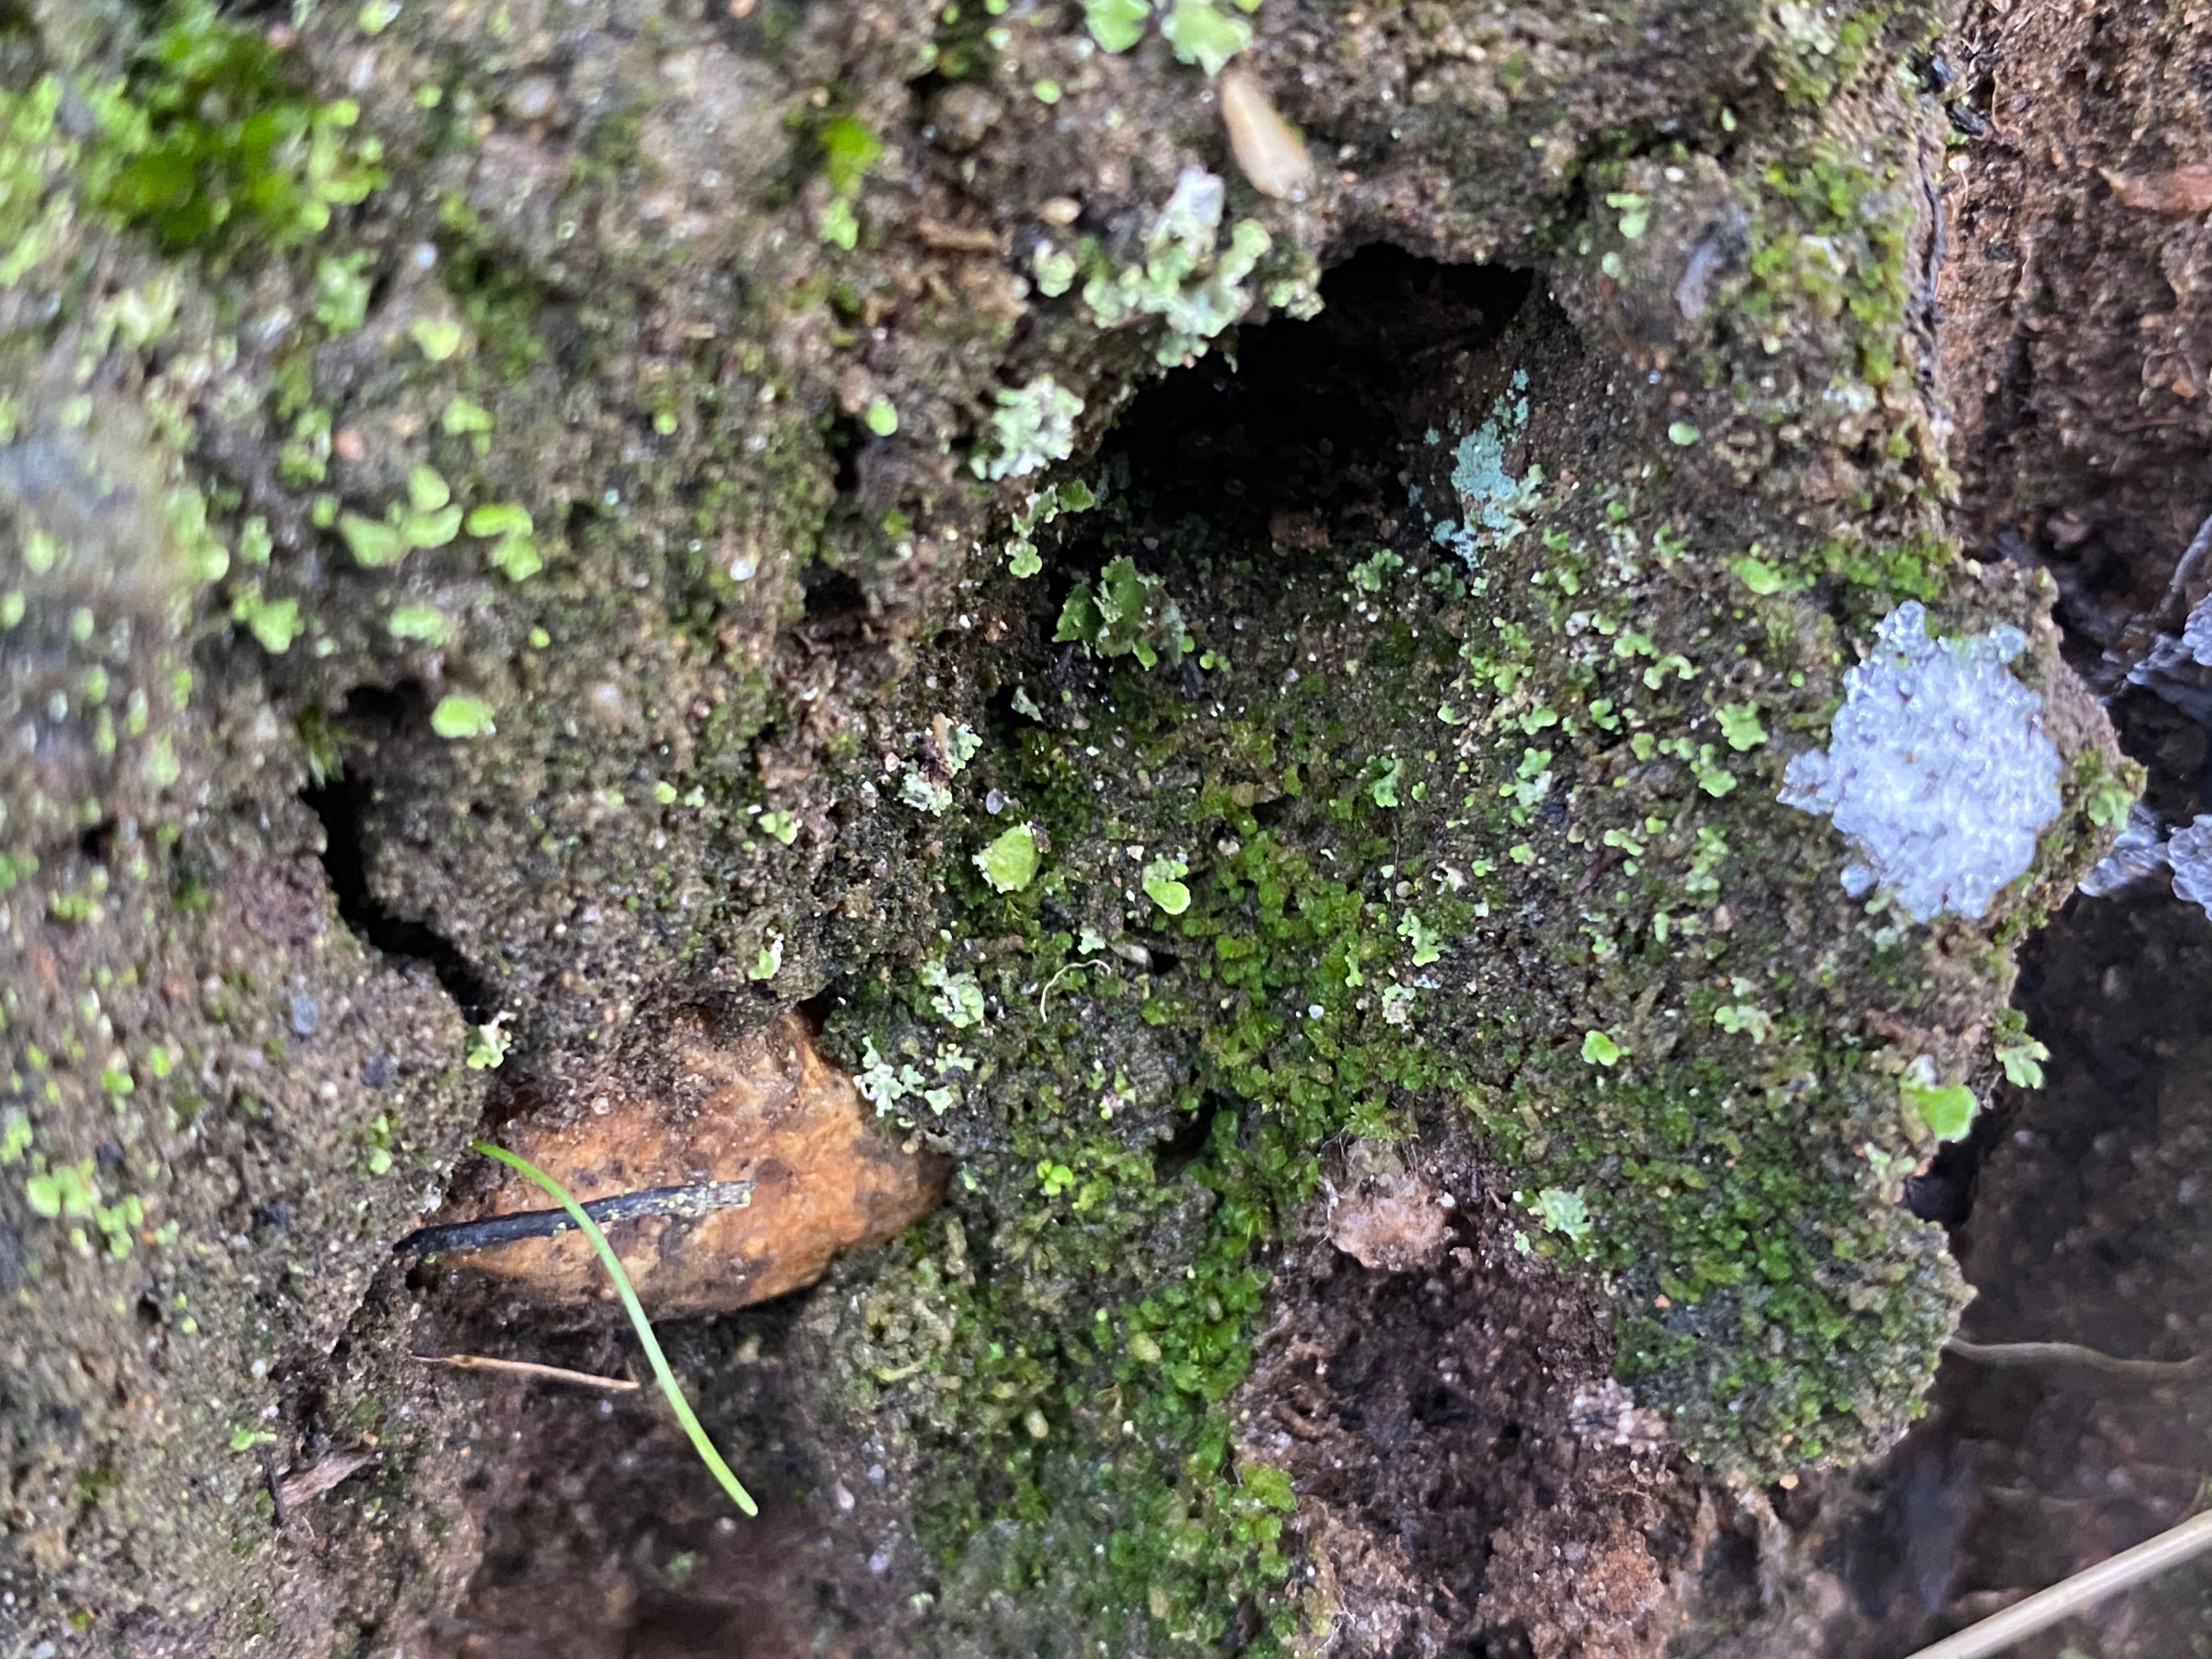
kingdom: Plantae
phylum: Marchantiophyta
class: Jungermanniopsida
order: Jungermanniales
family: Anastrophyllaceae
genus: Isopaches
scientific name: Isopaches bicrenatus
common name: Sand-foldbæger
